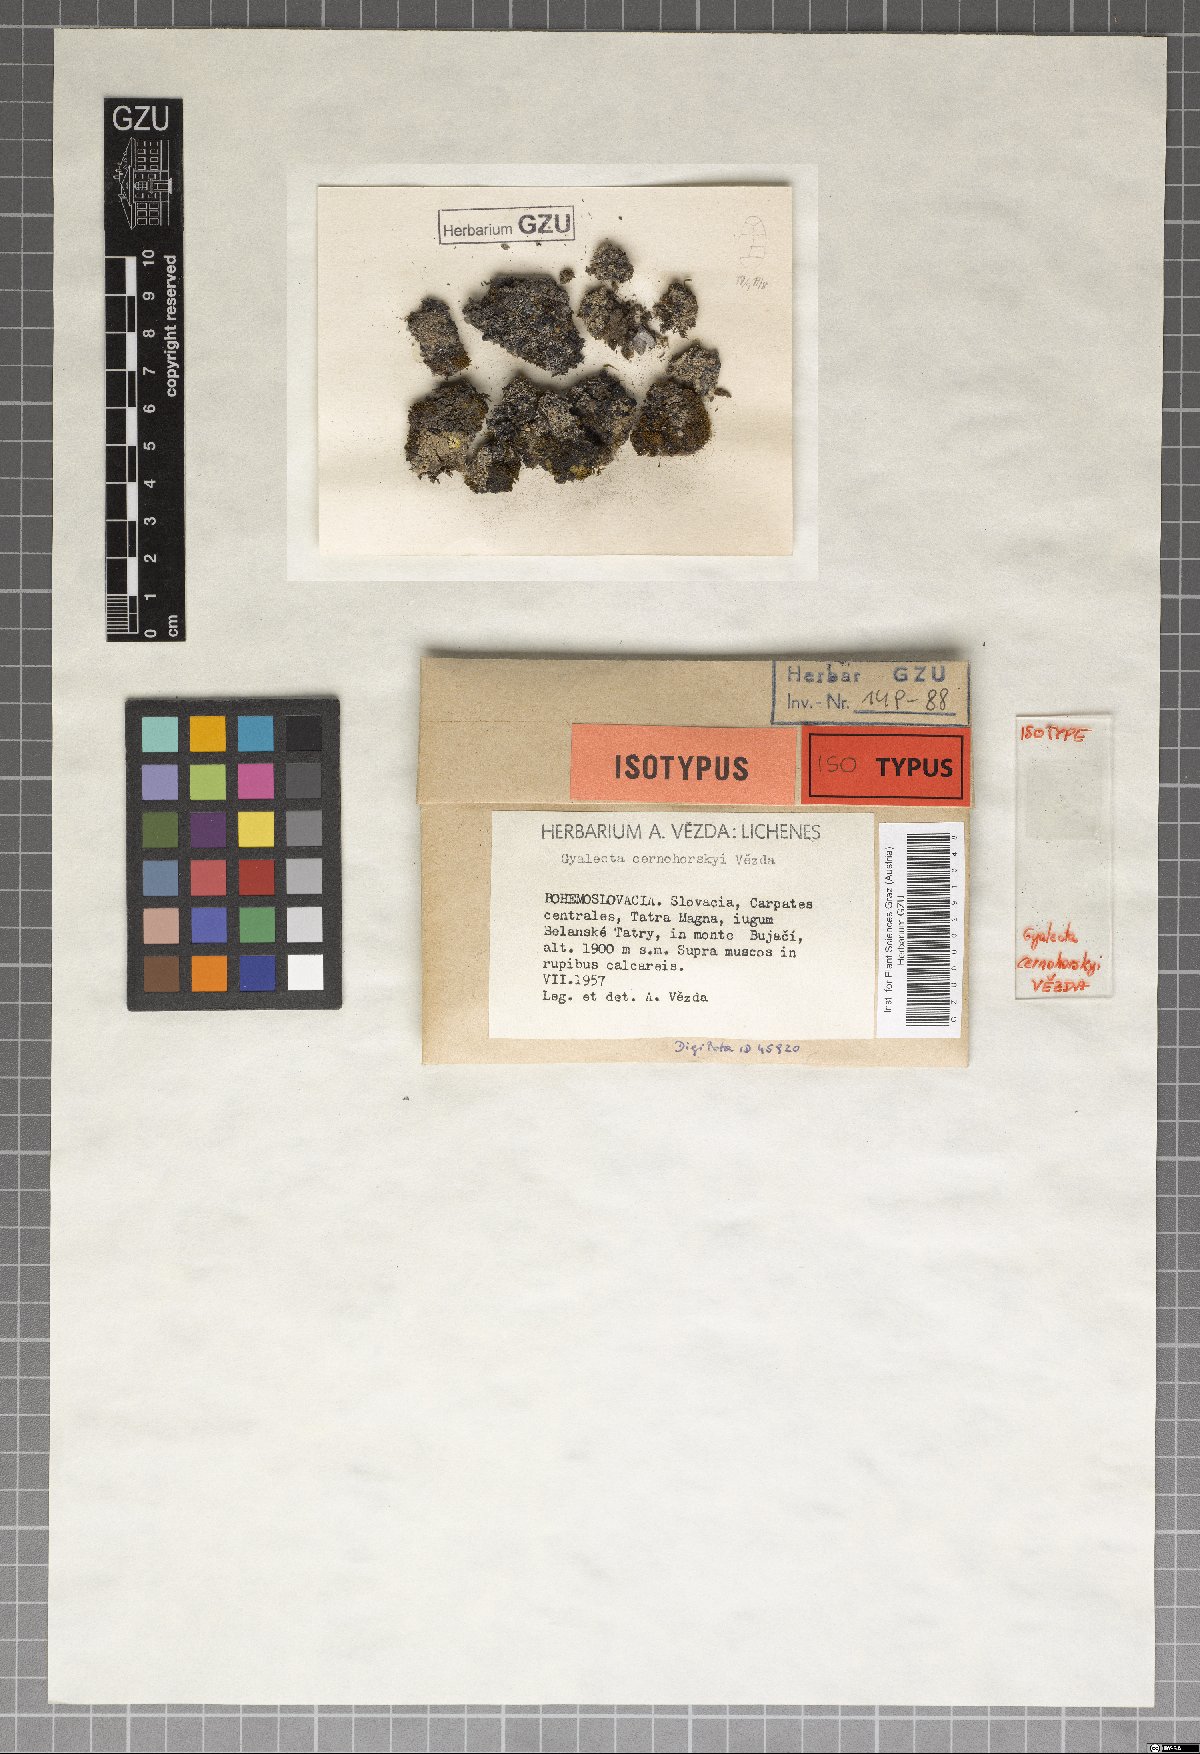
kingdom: Fungi
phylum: Ascomycota
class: Lecanoromycetes
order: Gyalectales
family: Gyalectaceae
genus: Gyalecta
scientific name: Gyalecta
